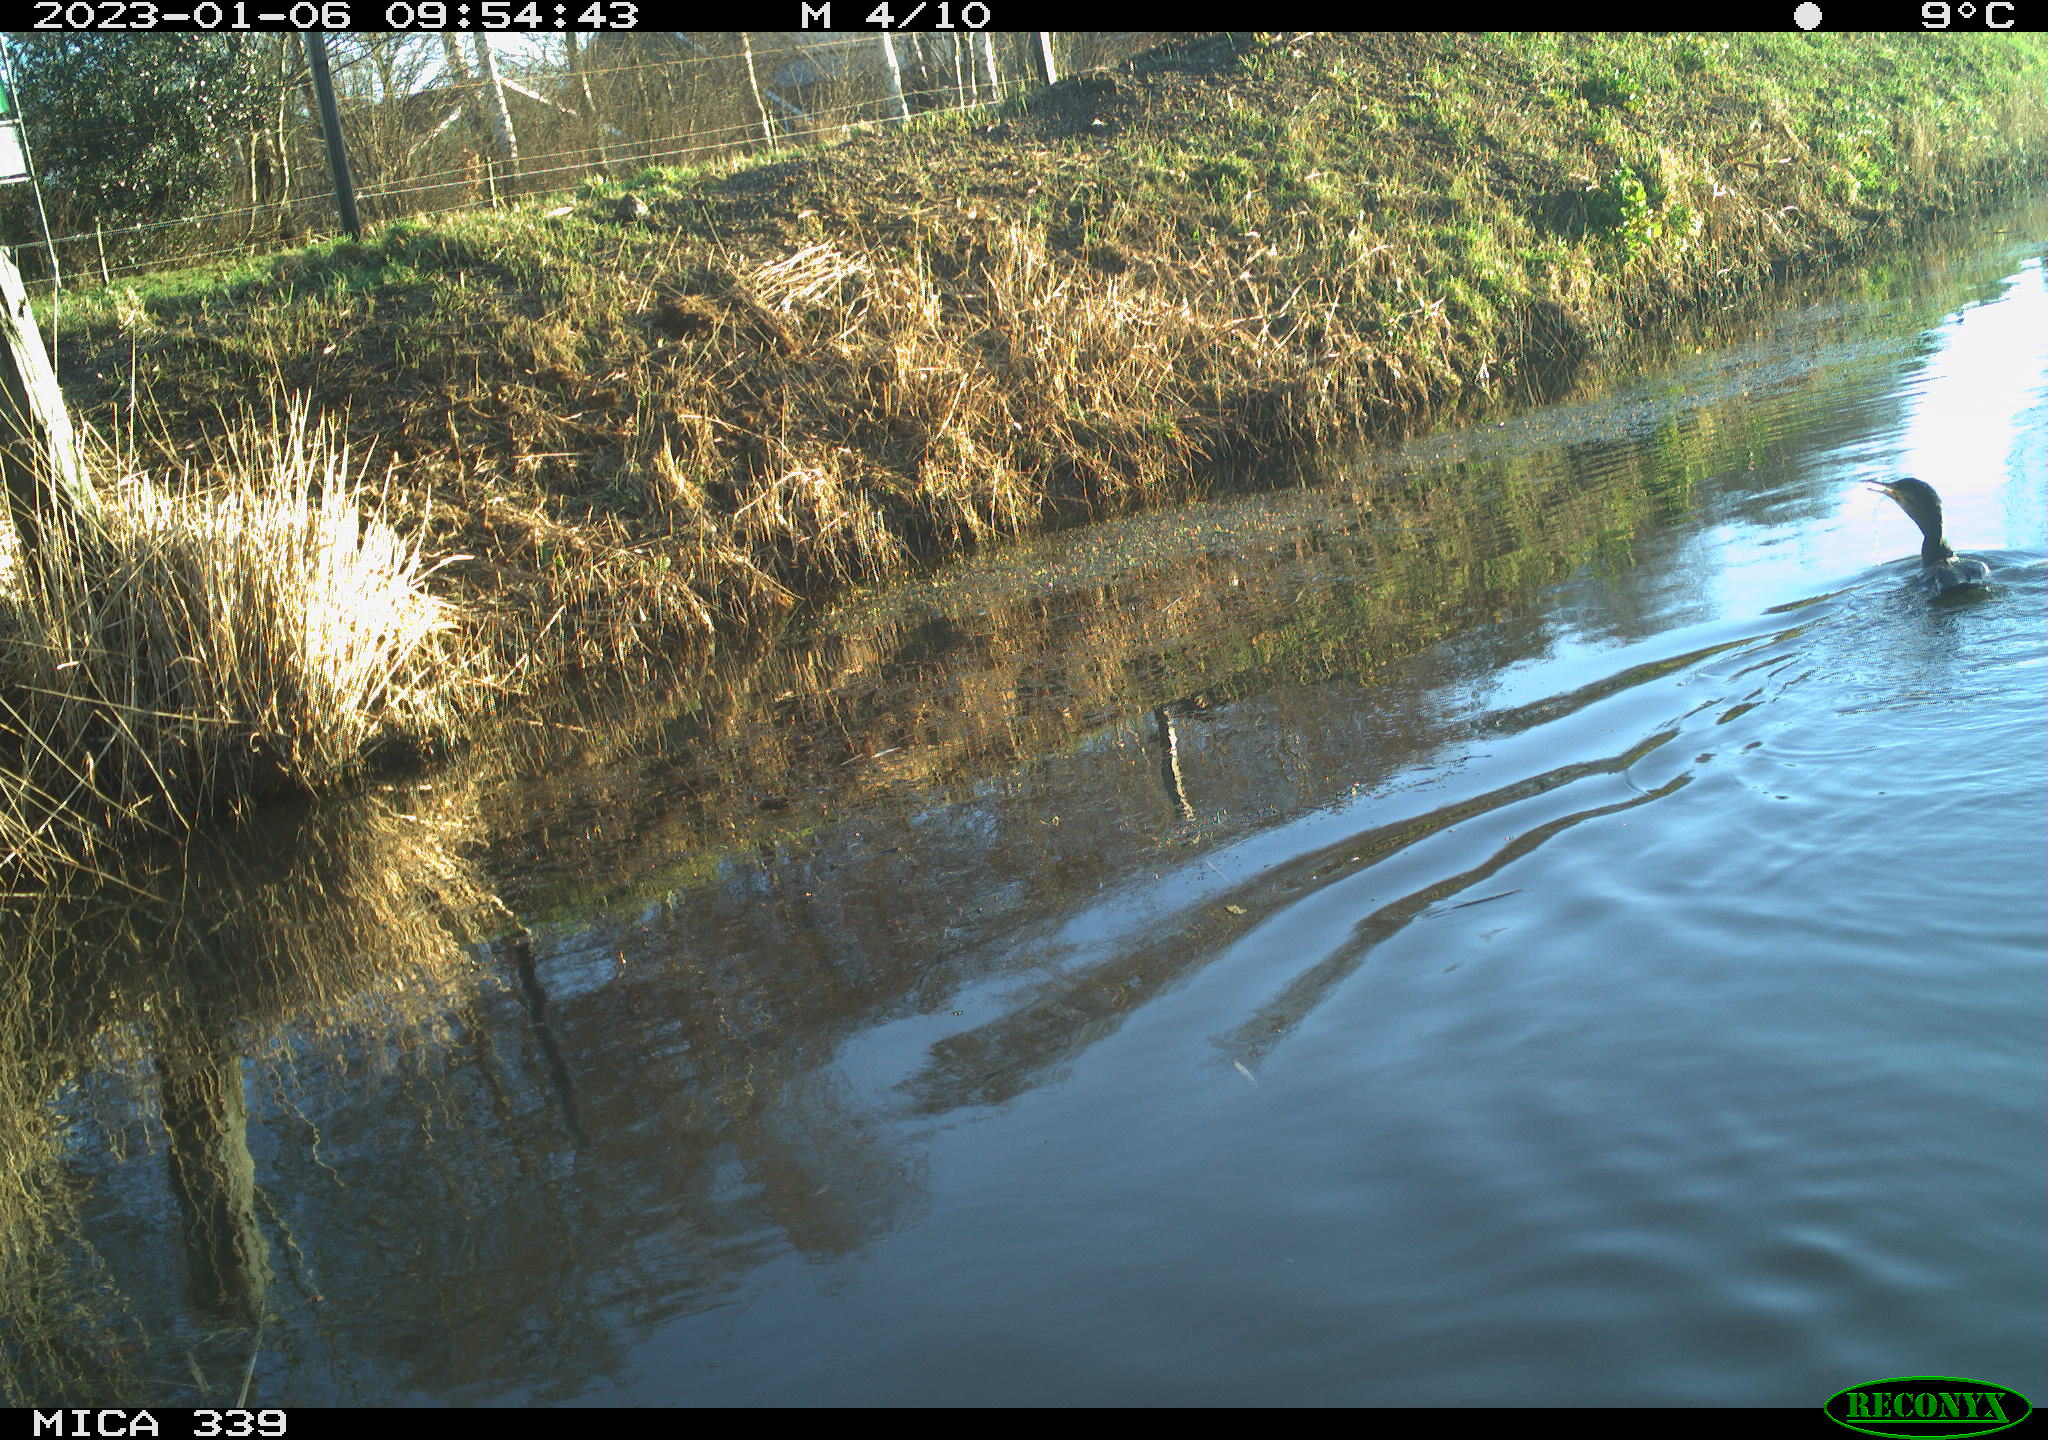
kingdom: Animalia
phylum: Chordata
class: Aves
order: Suliformes
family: Phalacrocoracidae
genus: Phalacrocorax
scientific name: Phalacrocorax carbo
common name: Great cormorant
